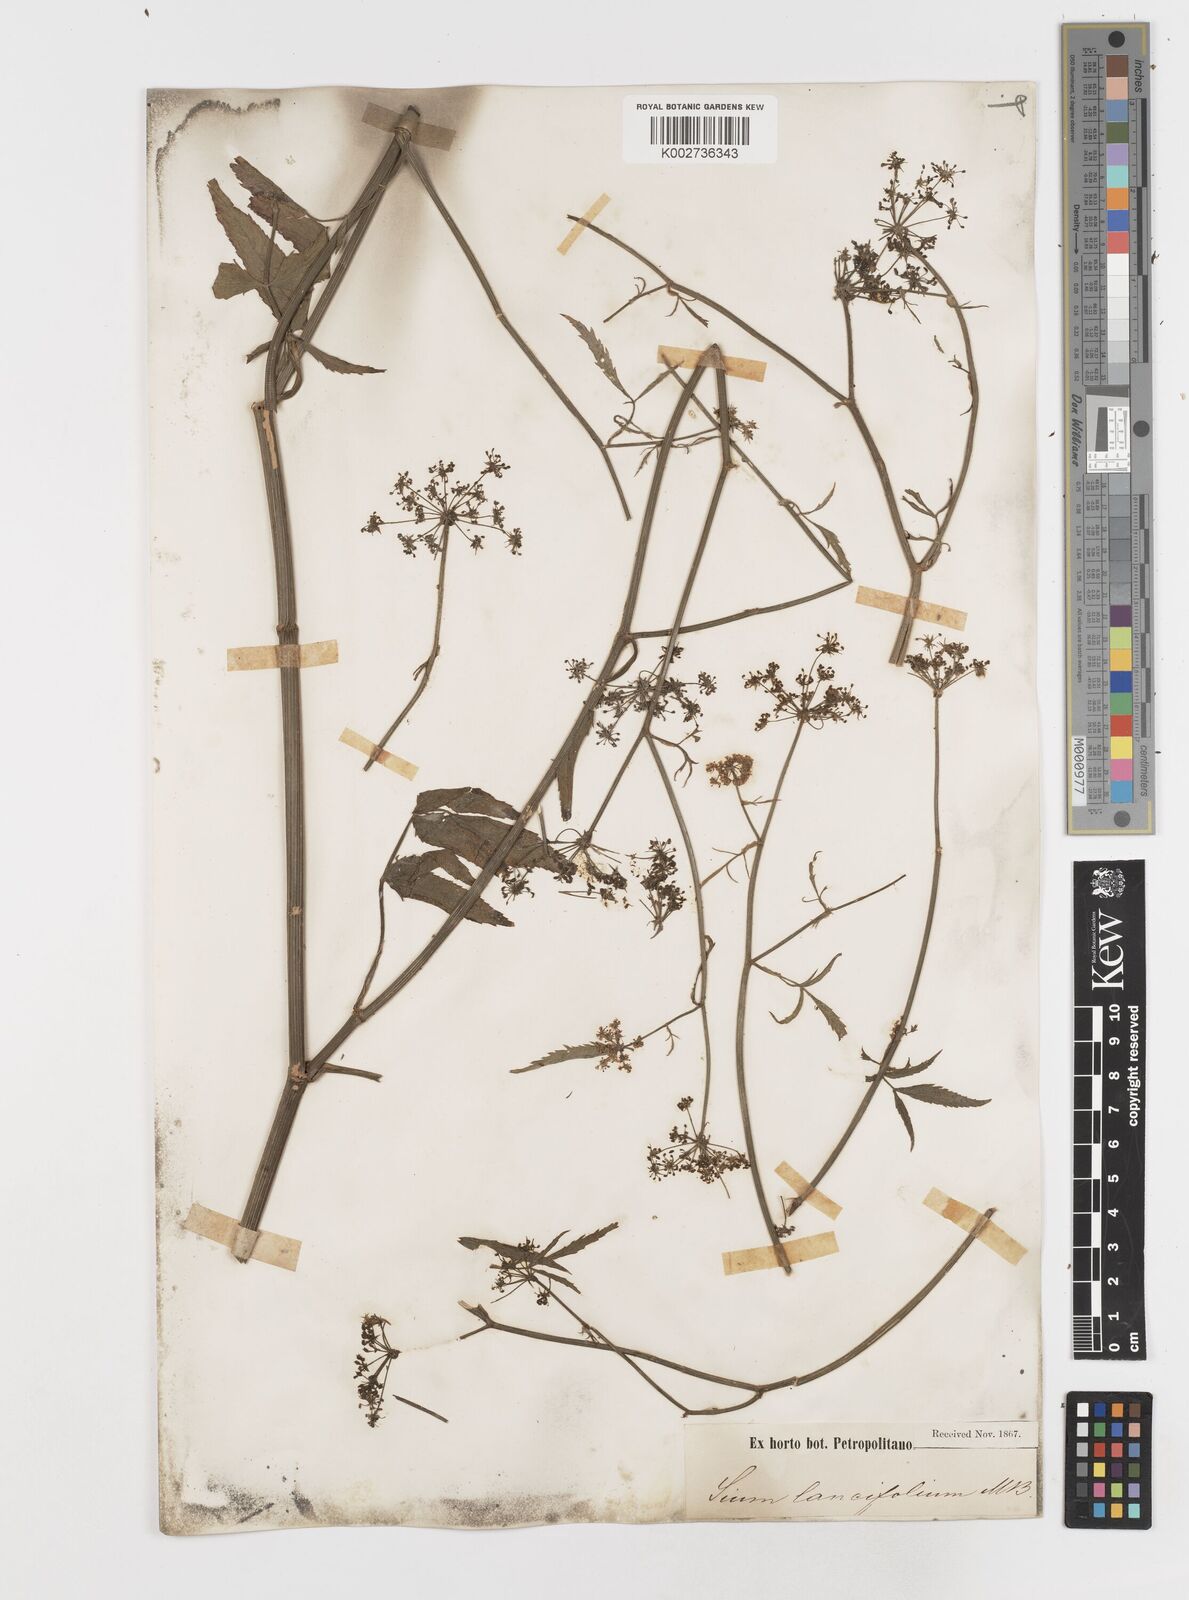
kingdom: Plantae
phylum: Tracheophyta
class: Magnoliopsida
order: Apiales
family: Apiaceae
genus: Sium
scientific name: Sium sisarum
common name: Skirret
